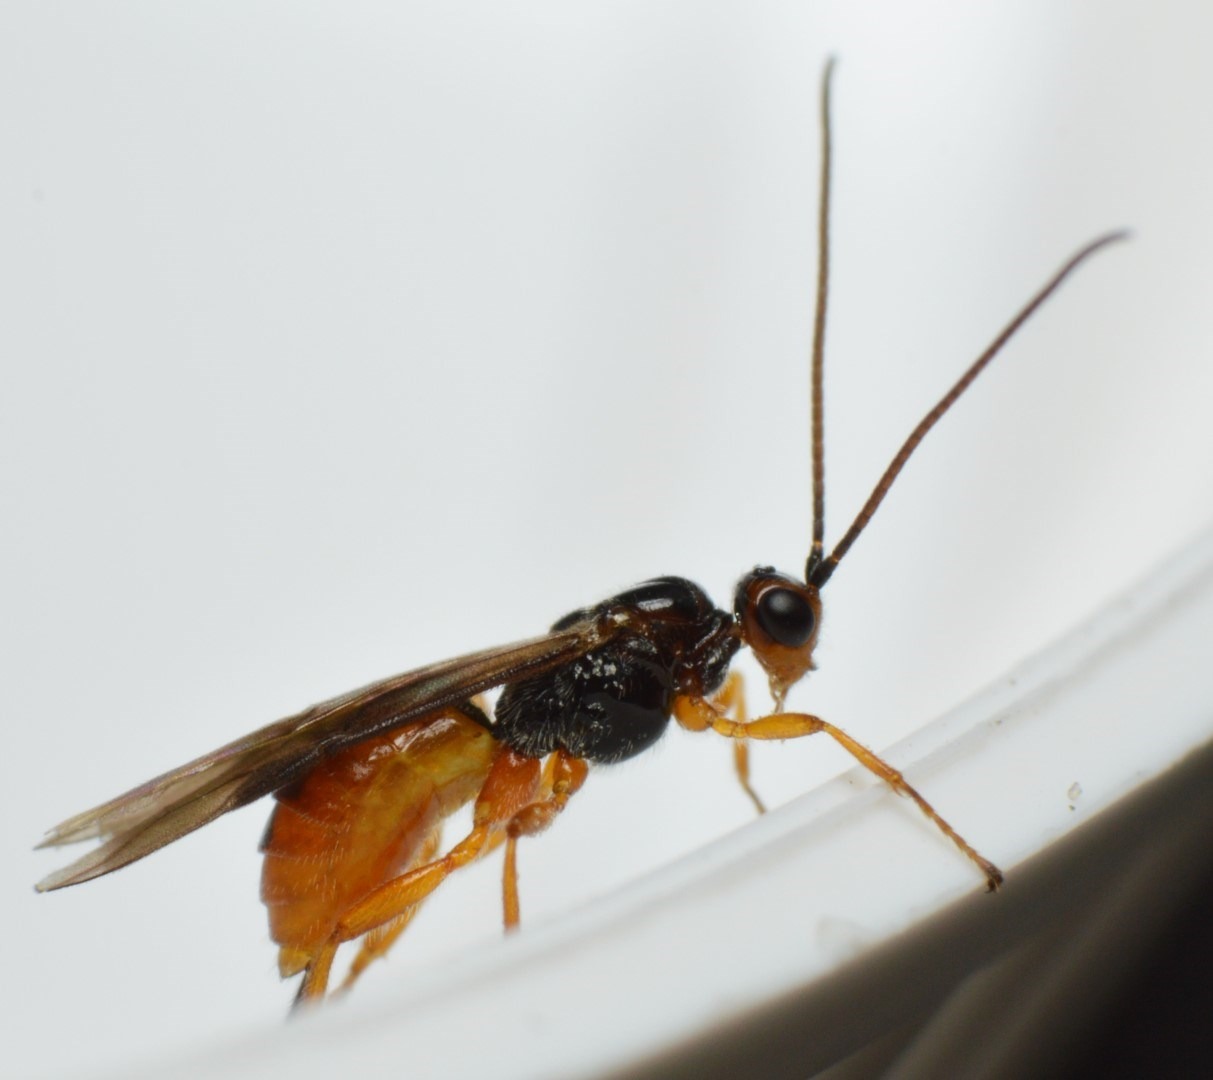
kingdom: Animalia
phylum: Arthropoda
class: Insecta
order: Hymenoptera
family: Braconidae
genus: Bracon
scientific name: Bracon fulvipes
